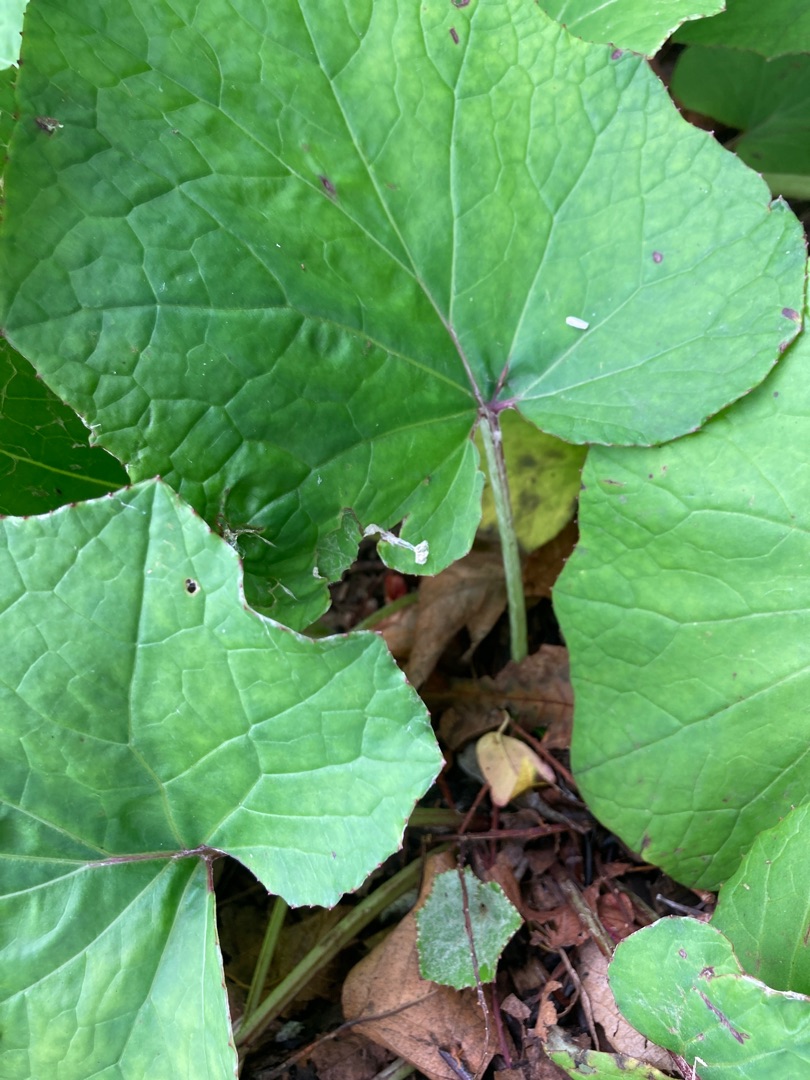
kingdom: Plantae
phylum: Tracheophyta
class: Magnoliopsida
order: Asterales
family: Asteraceae
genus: Tussilago
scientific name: Tussilago farfara
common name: Følfod
